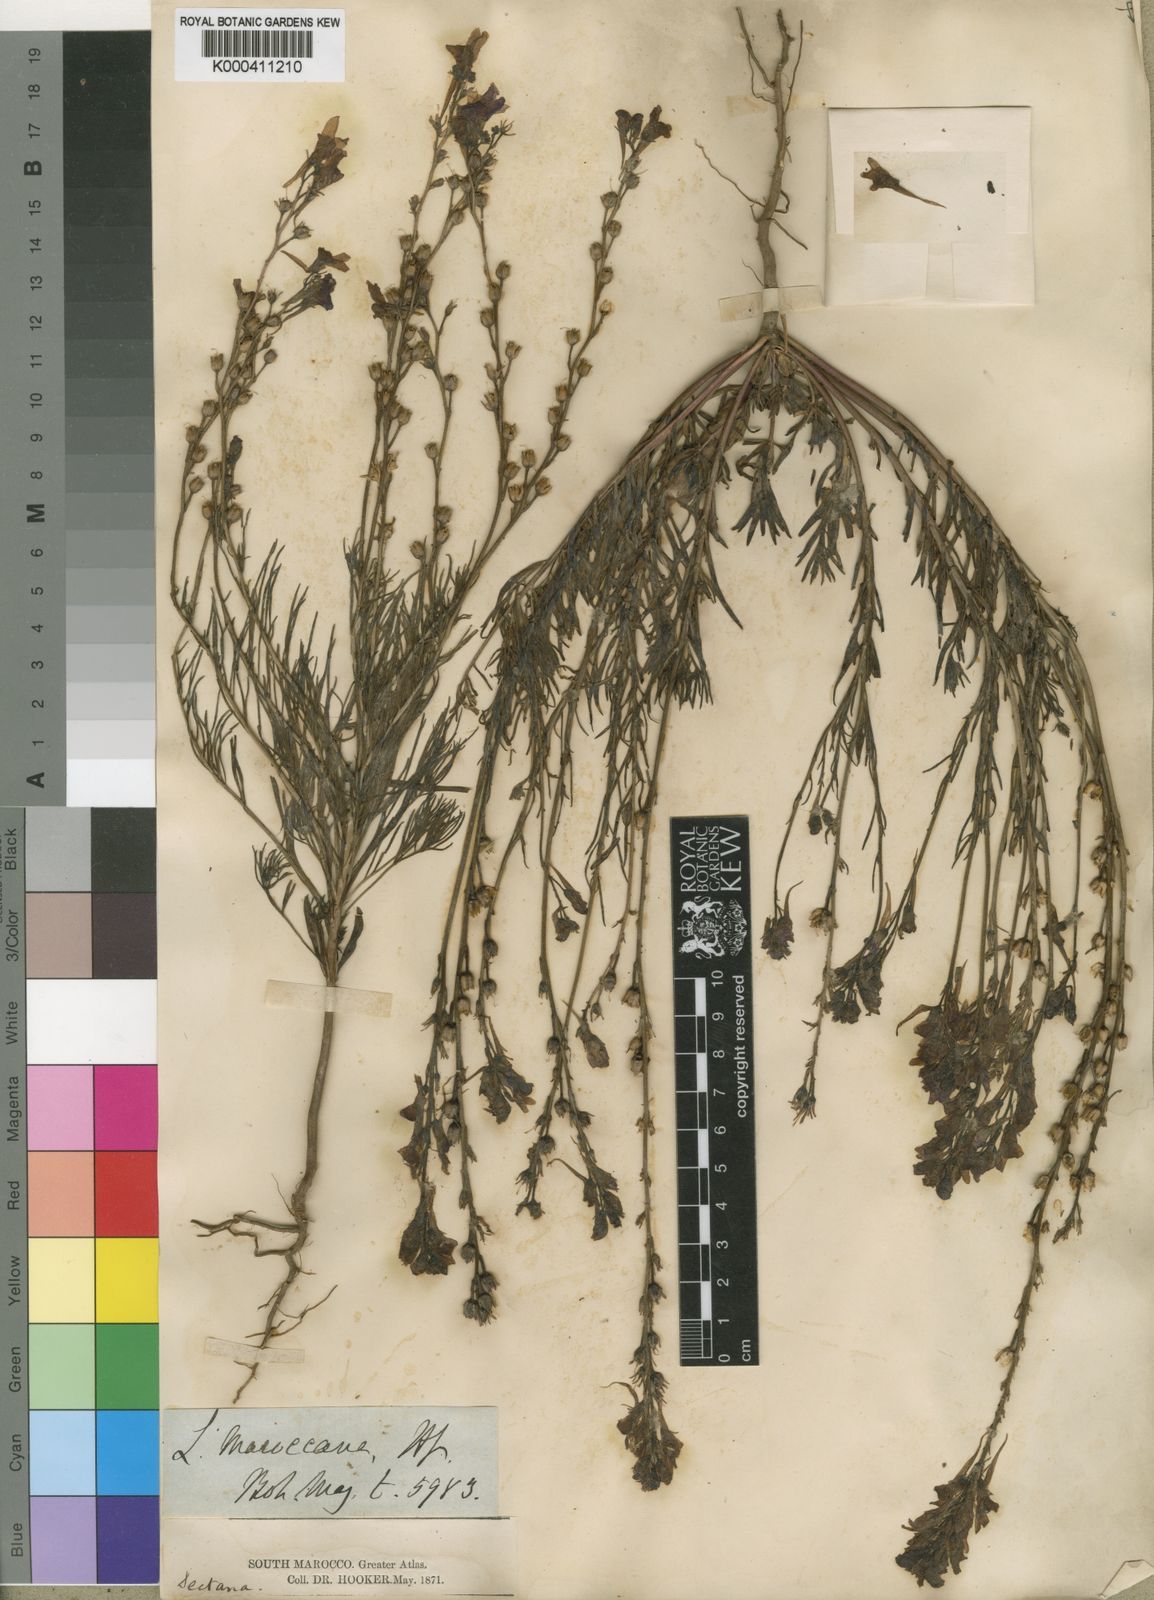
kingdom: Plantae
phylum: Tracheophyta
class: Magnoliopsida
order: Lamiales
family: Plantaginaceae
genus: Linaria
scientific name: Linaria maroccana
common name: Moroccan toadflax
